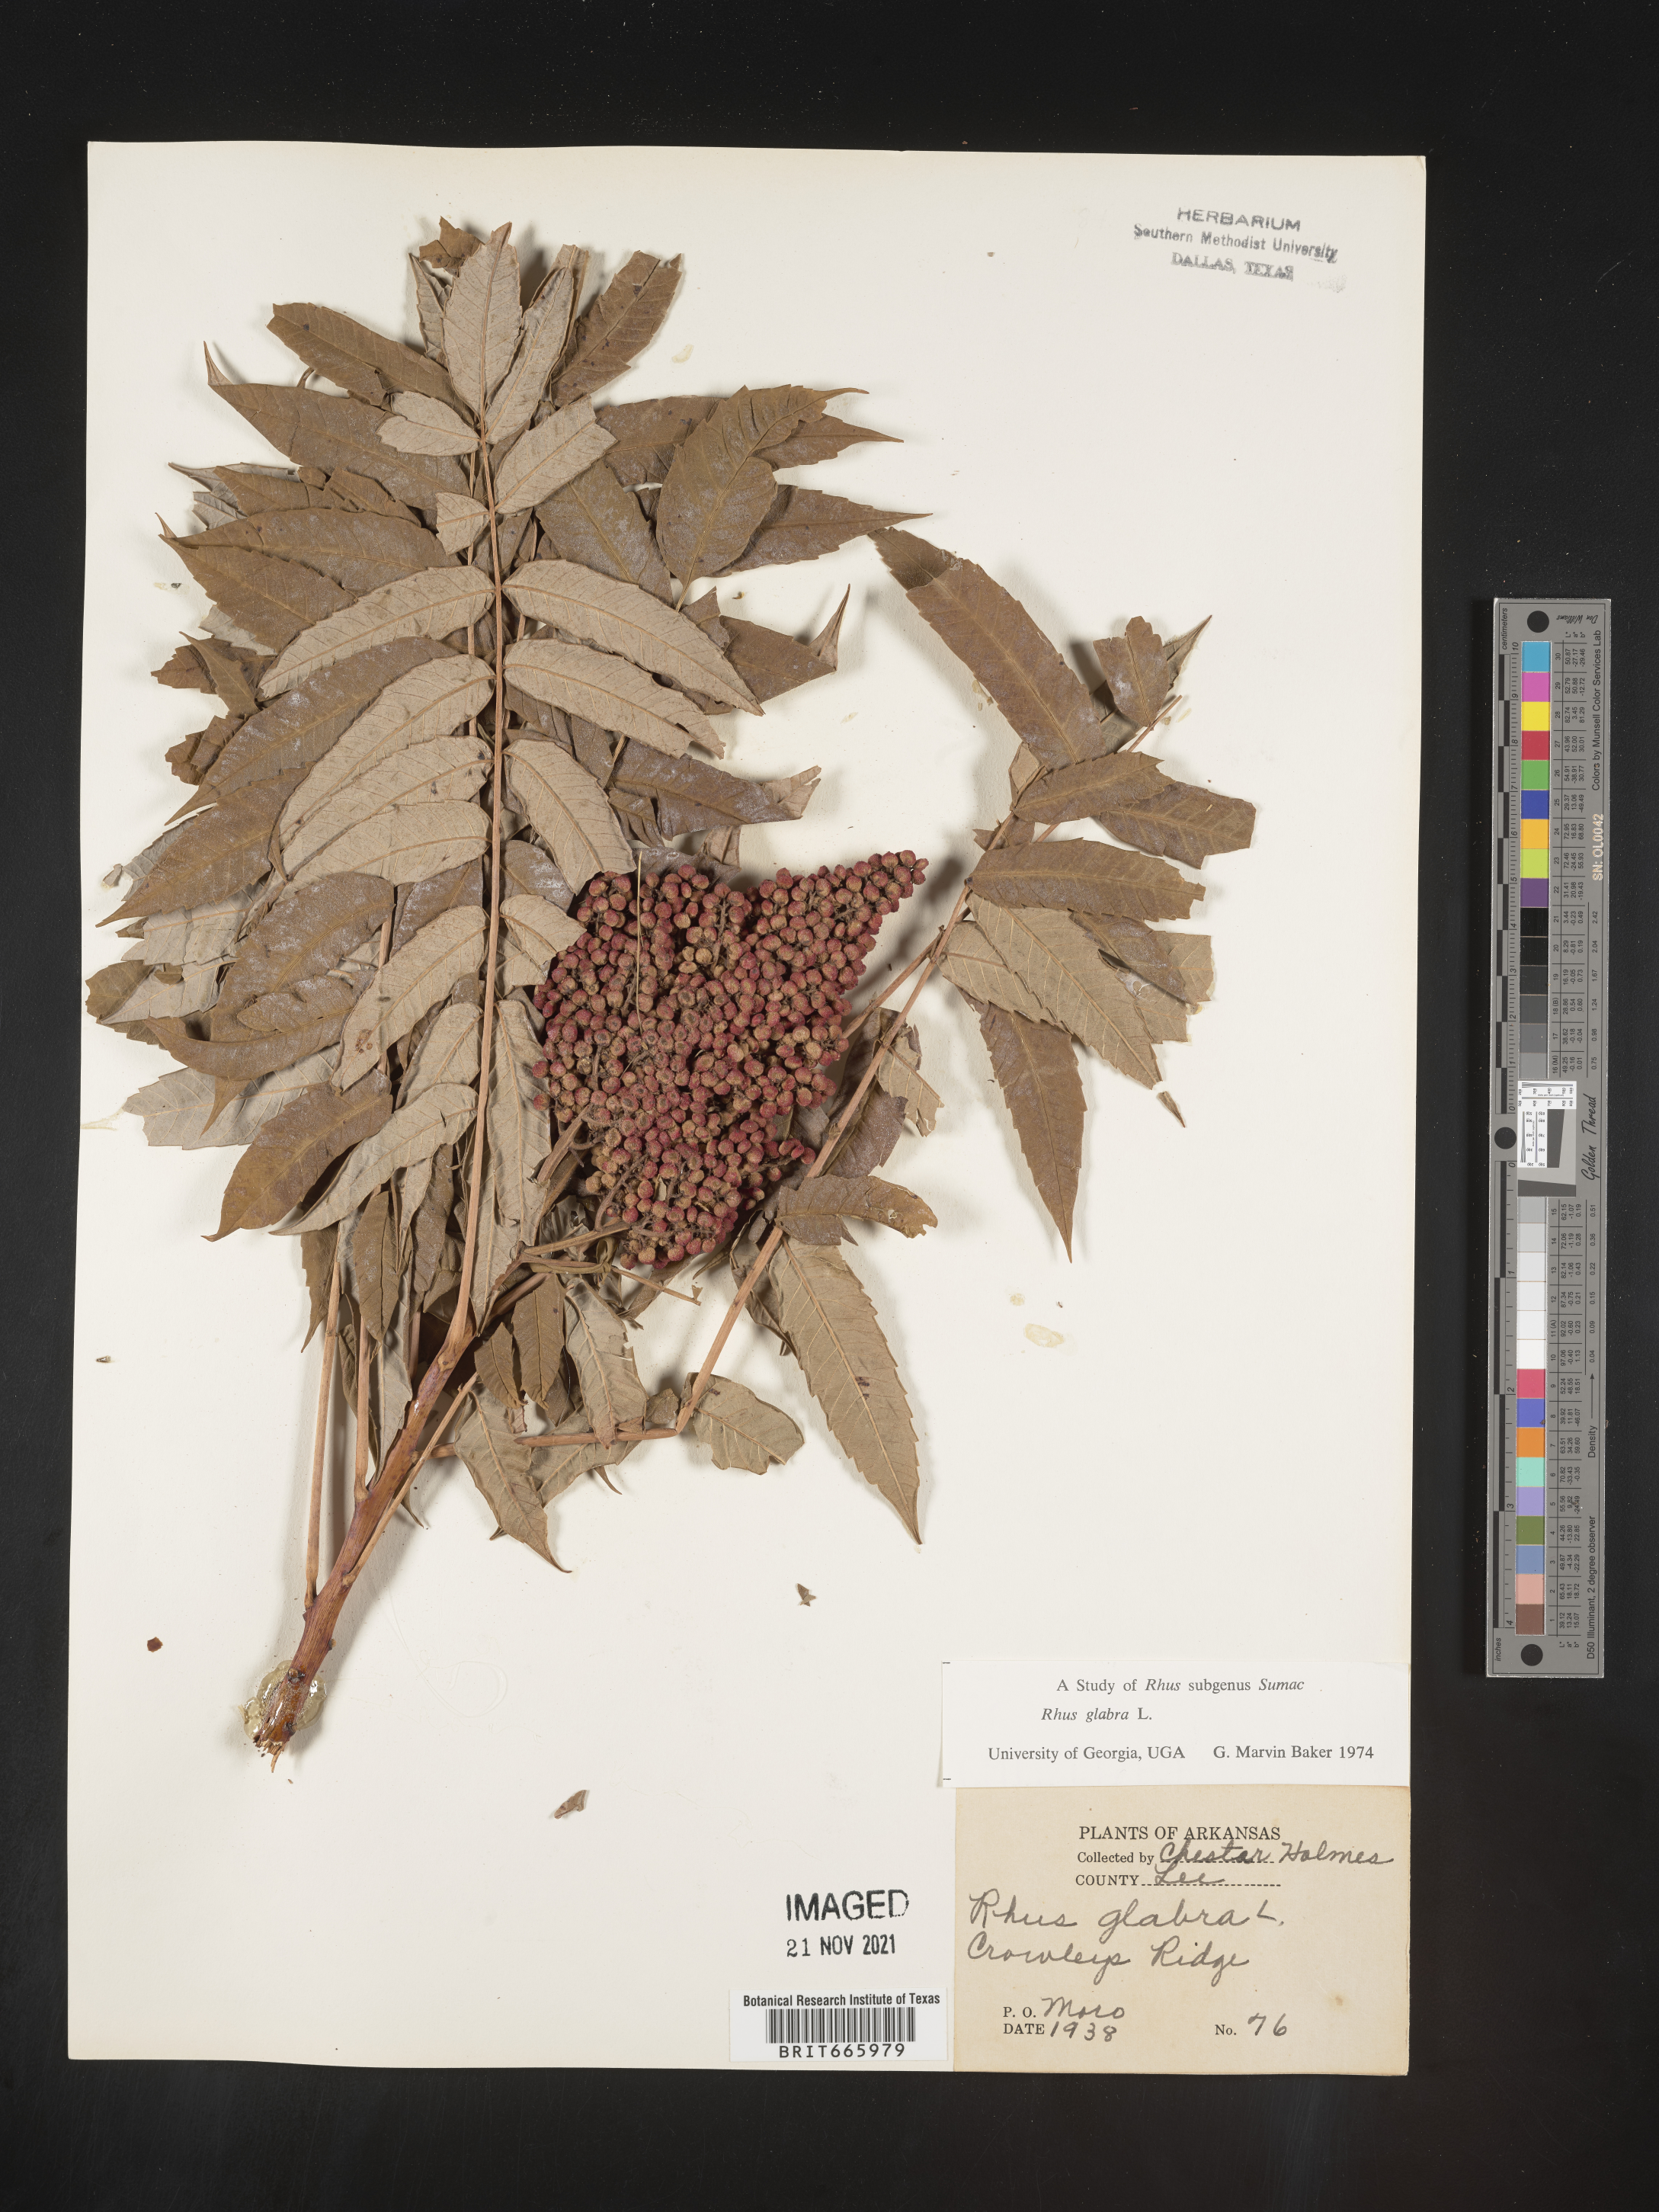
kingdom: Plantae
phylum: Tracheophyta
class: Magnoliopsida
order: Sapindales
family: Anacardiaceae
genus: Rhus
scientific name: Rhus glabra
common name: Scarlet sumac
